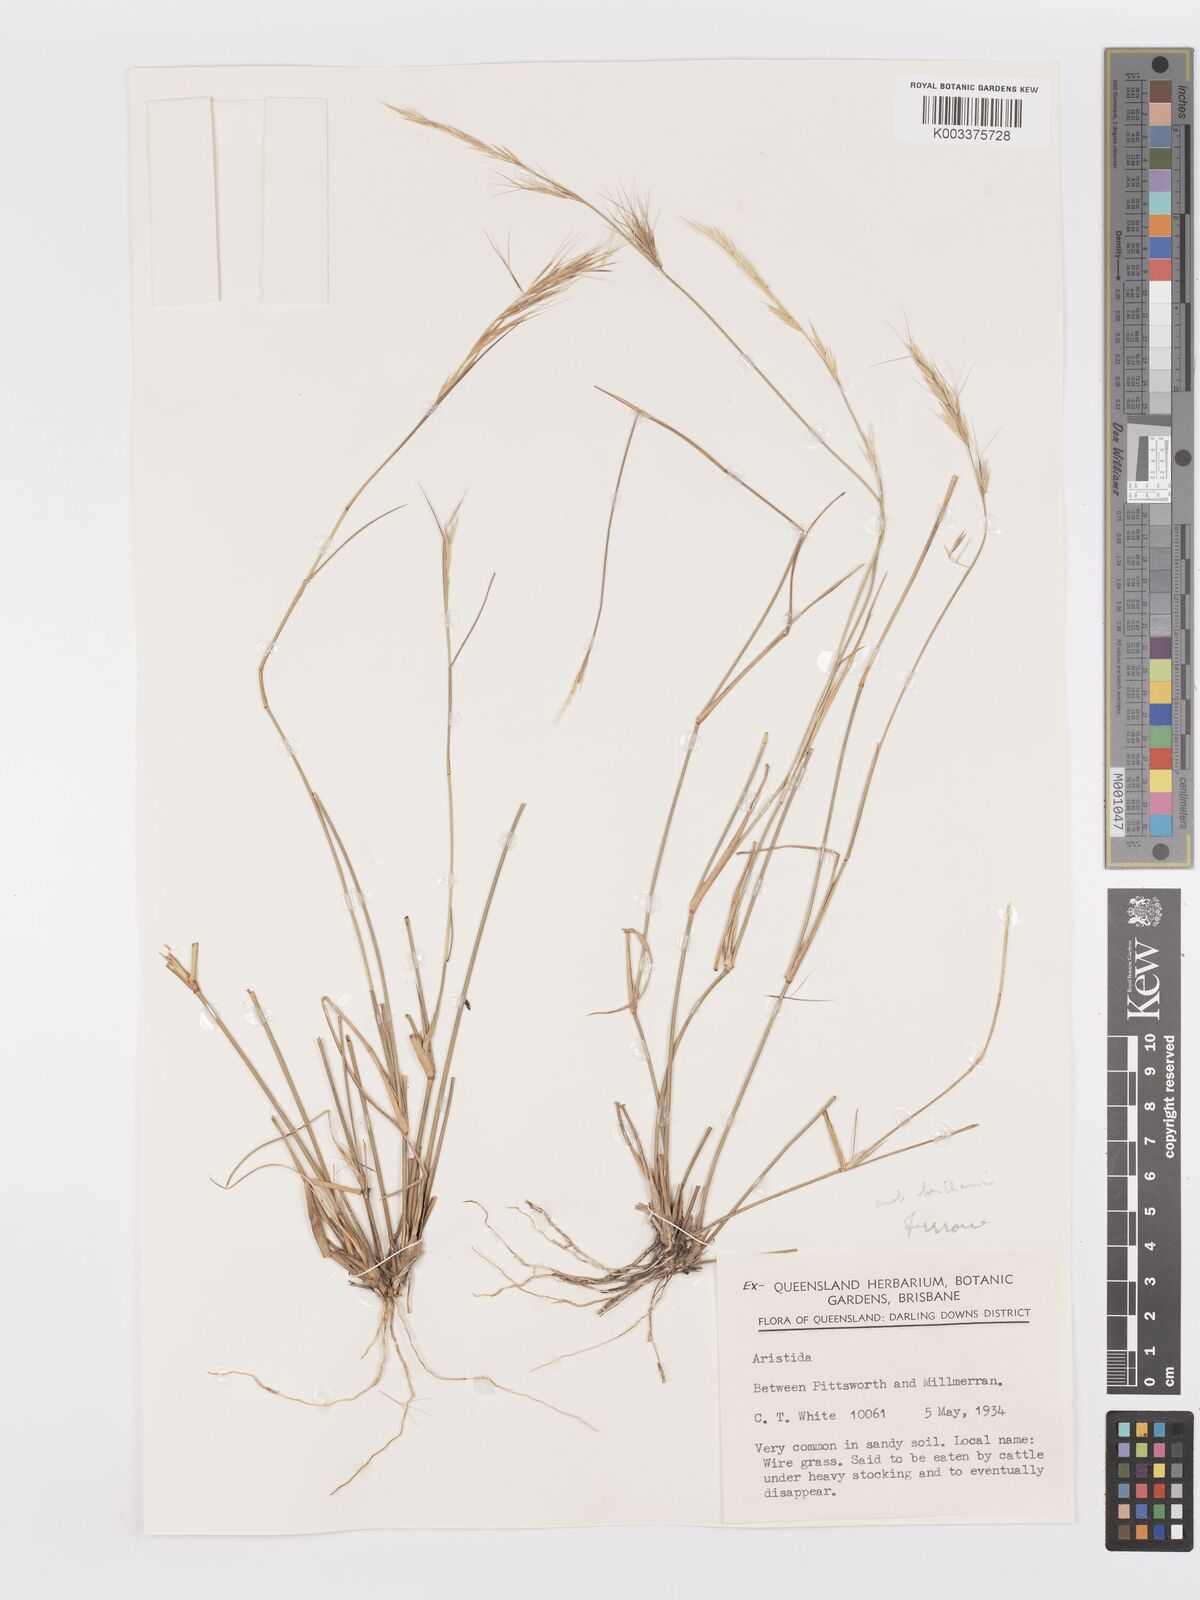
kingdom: Plantae
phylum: Tracheophyta
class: Liliopsida
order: Poales
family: Poaceae
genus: Aristida
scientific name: Aristida
